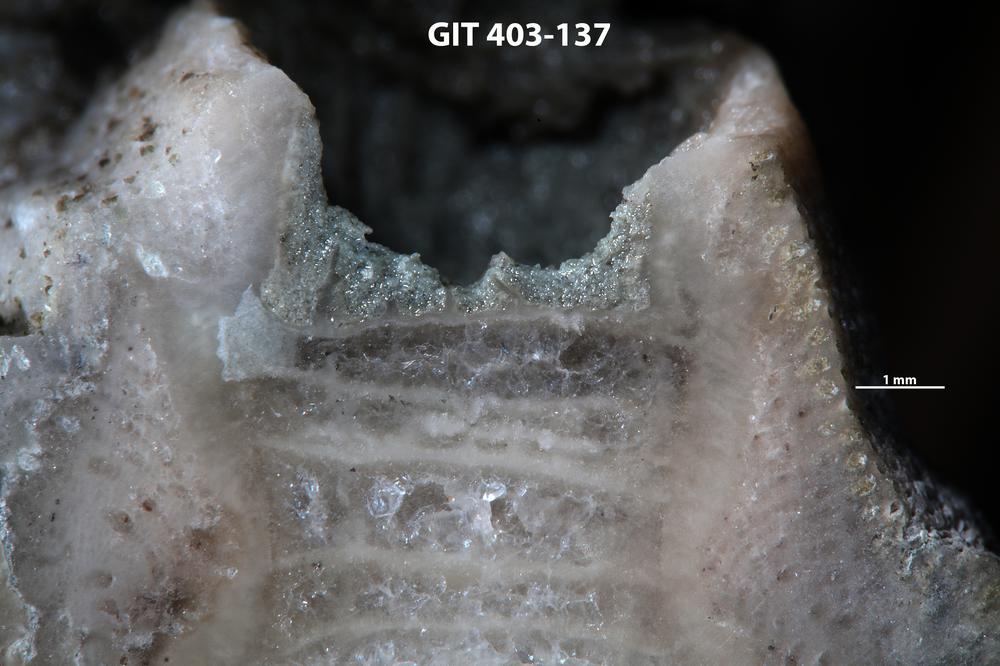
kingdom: Animalia
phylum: Bryozoa
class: Stenolaemata
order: Cystoporida
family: Fistuliporidae
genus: Fistulipora
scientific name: Fistulipora przhidolensis
